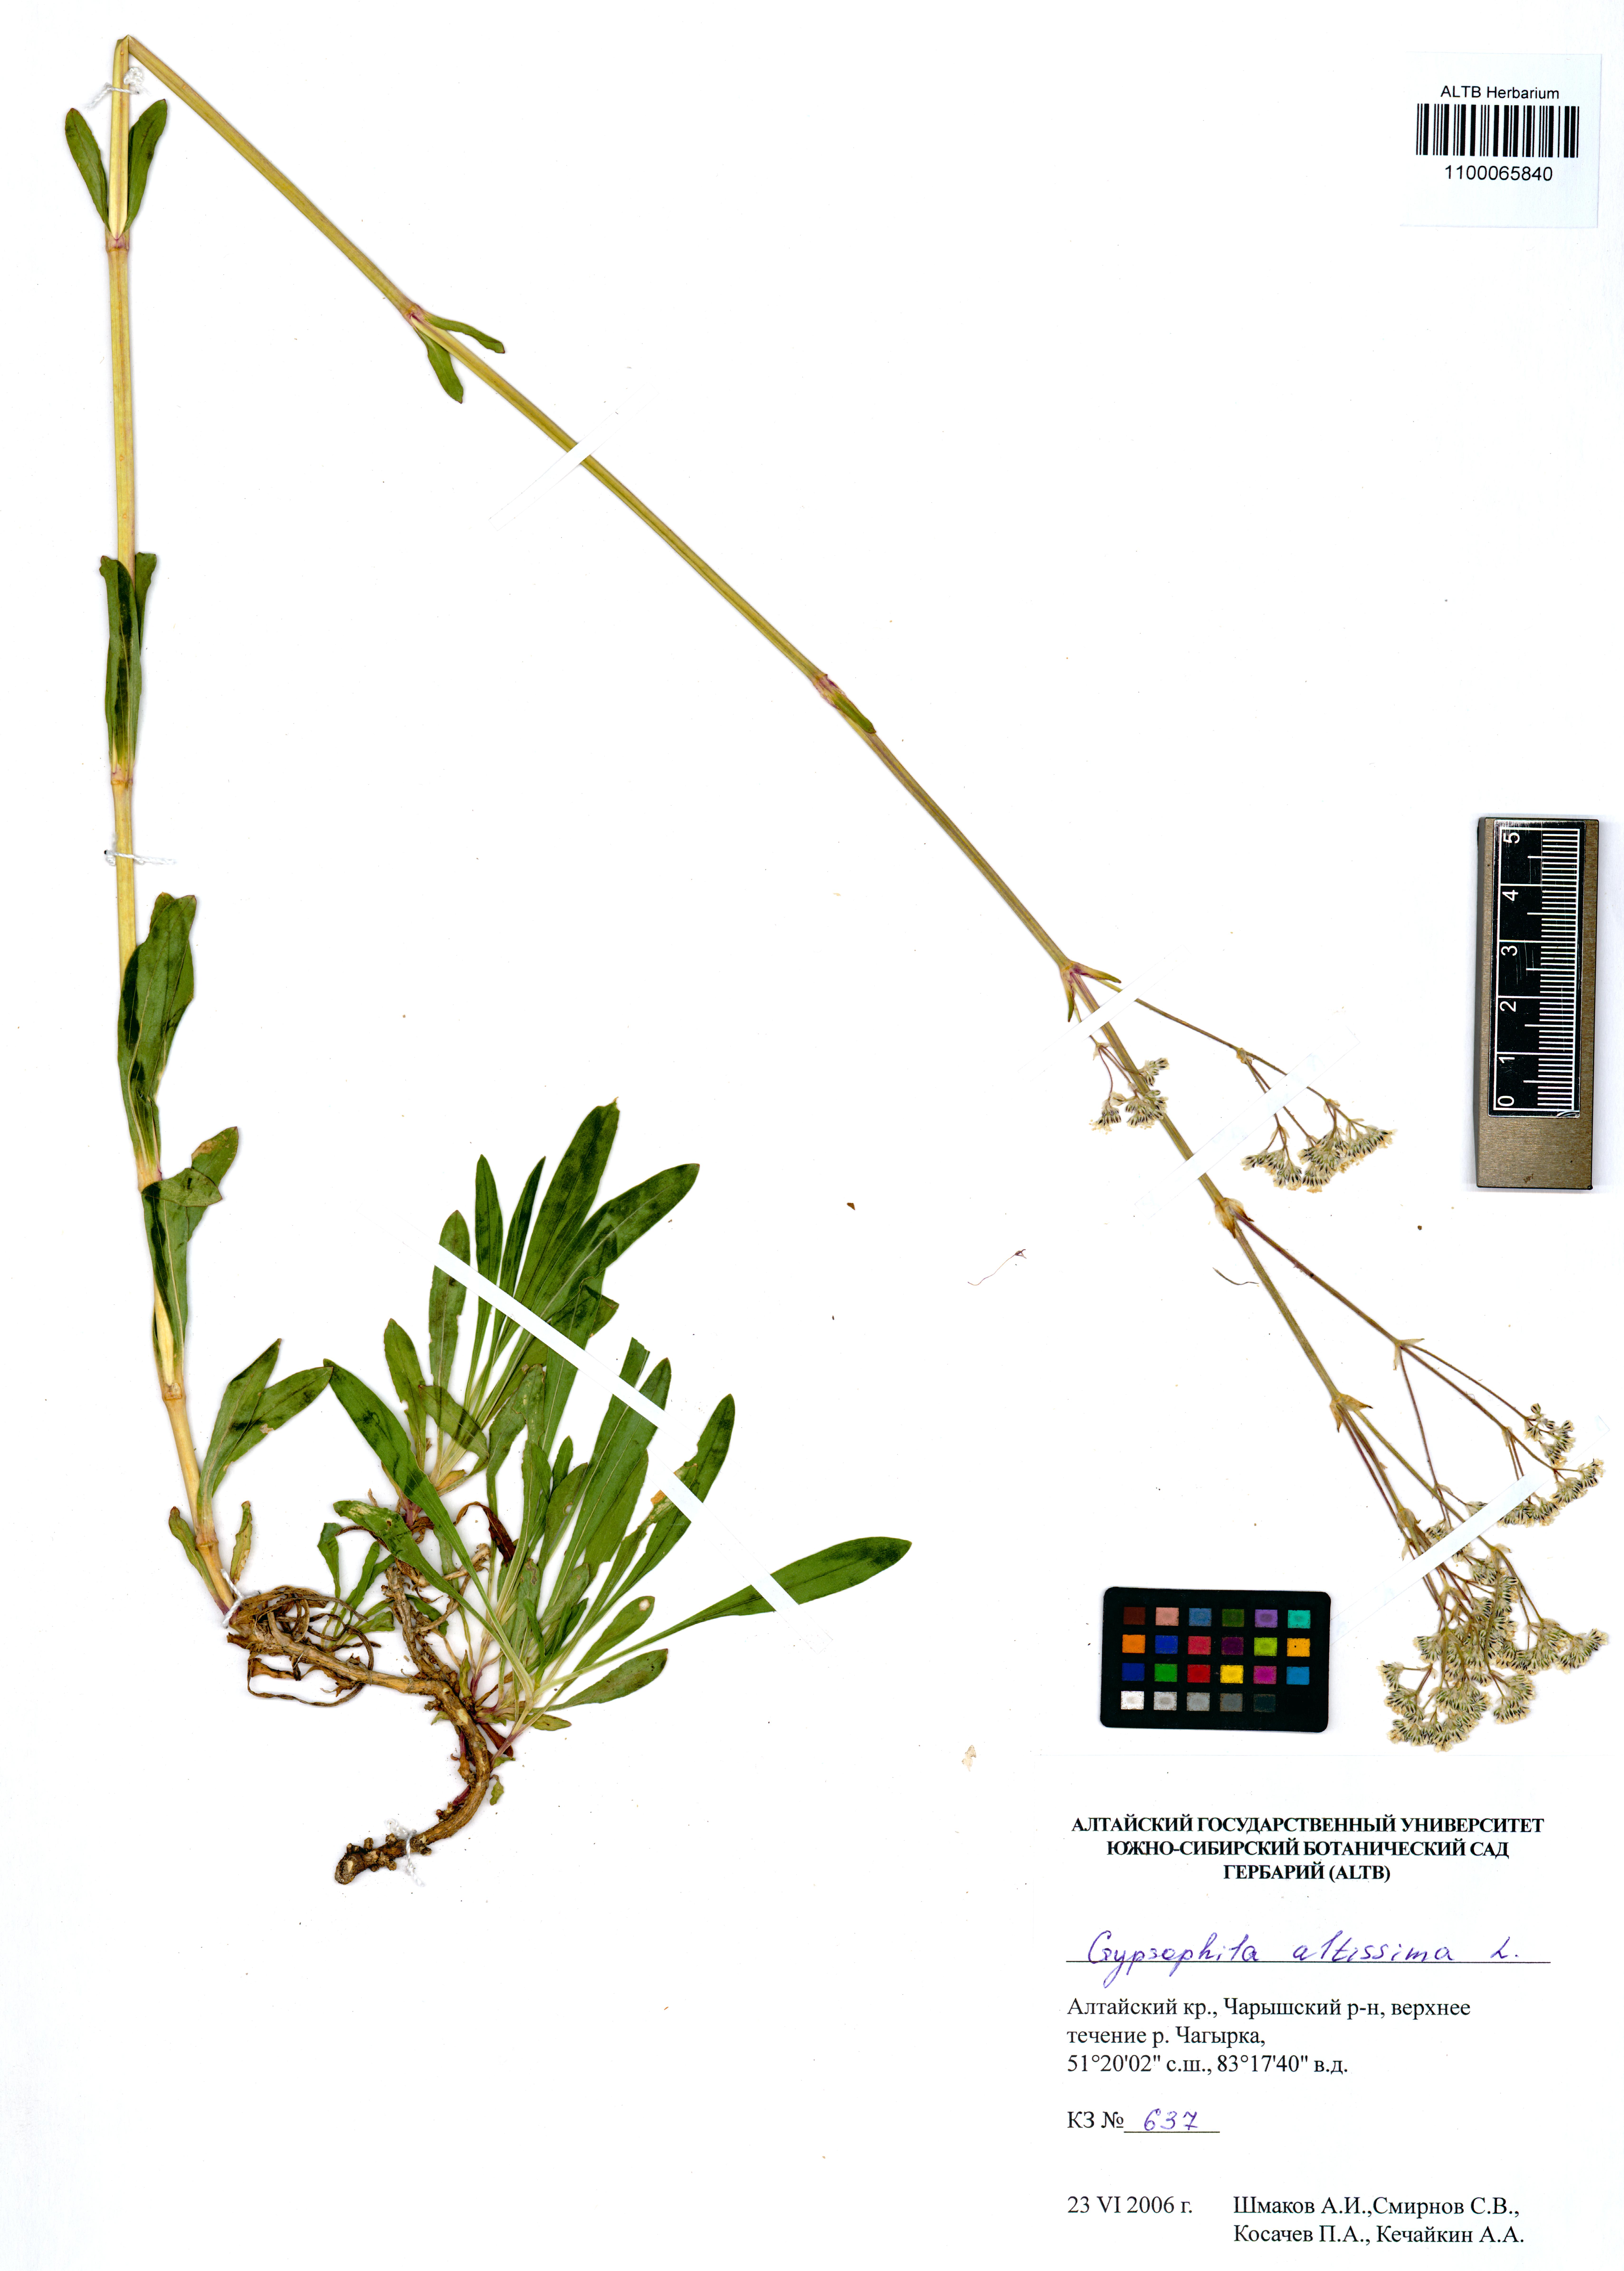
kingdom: Plantae
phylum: Tracheophyta
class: Magnoliopsida
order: Caryophyllales
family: Caryophyllaceae
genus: Gypsophila
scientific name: Gypsophila altissima
